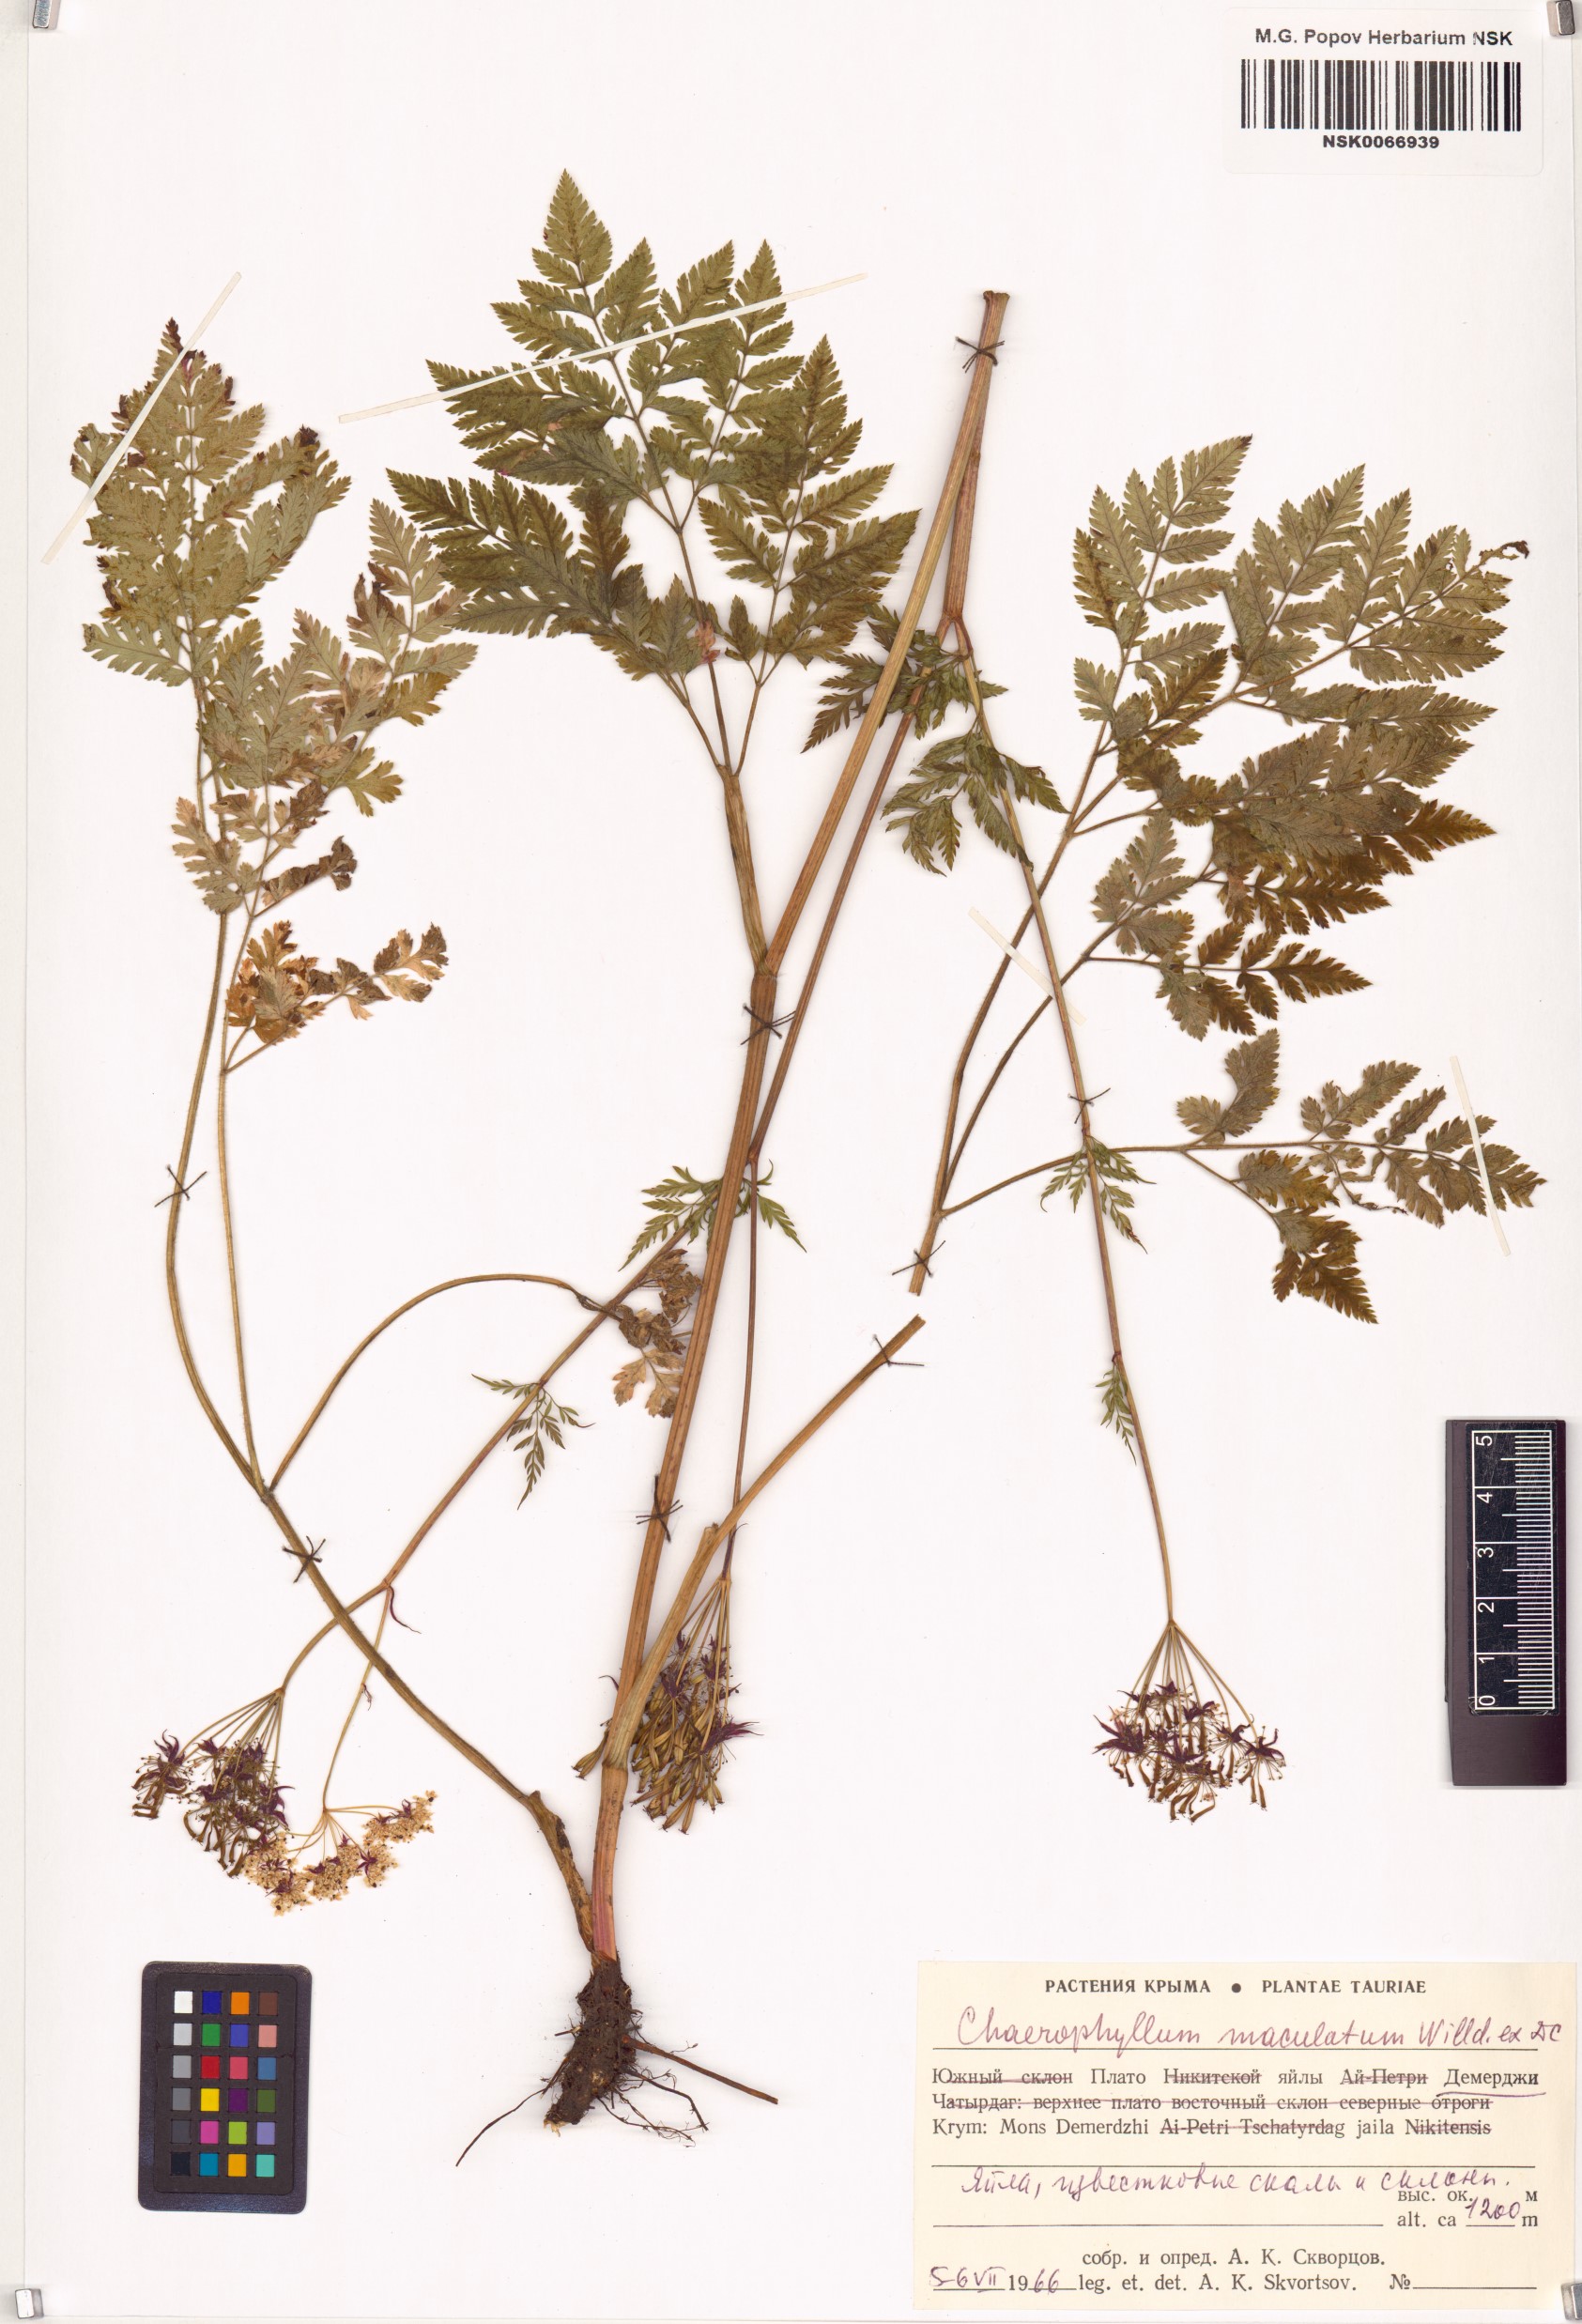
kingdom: Plantae
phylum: Tracheophyta
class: Magnoliopsida
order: Apiales
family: Apiaceae
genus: Chaerophyllum
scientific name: Chaerophyllum aureum
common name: Golden chervil
